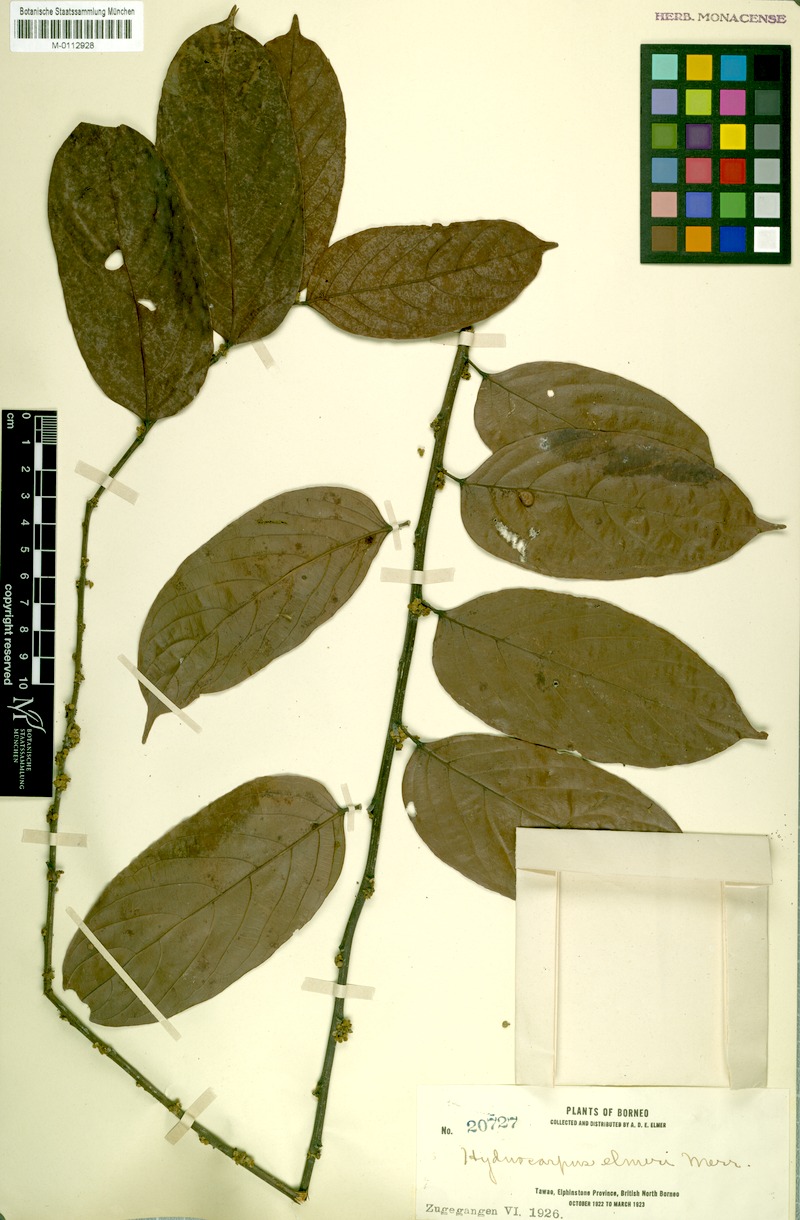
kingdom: Plantae
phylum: Tracheophyta
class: Magnoliopsida
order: Malpighiales
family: Achariaceae
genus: Hydnocarpus
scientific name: Hydnocarpus elmeri
